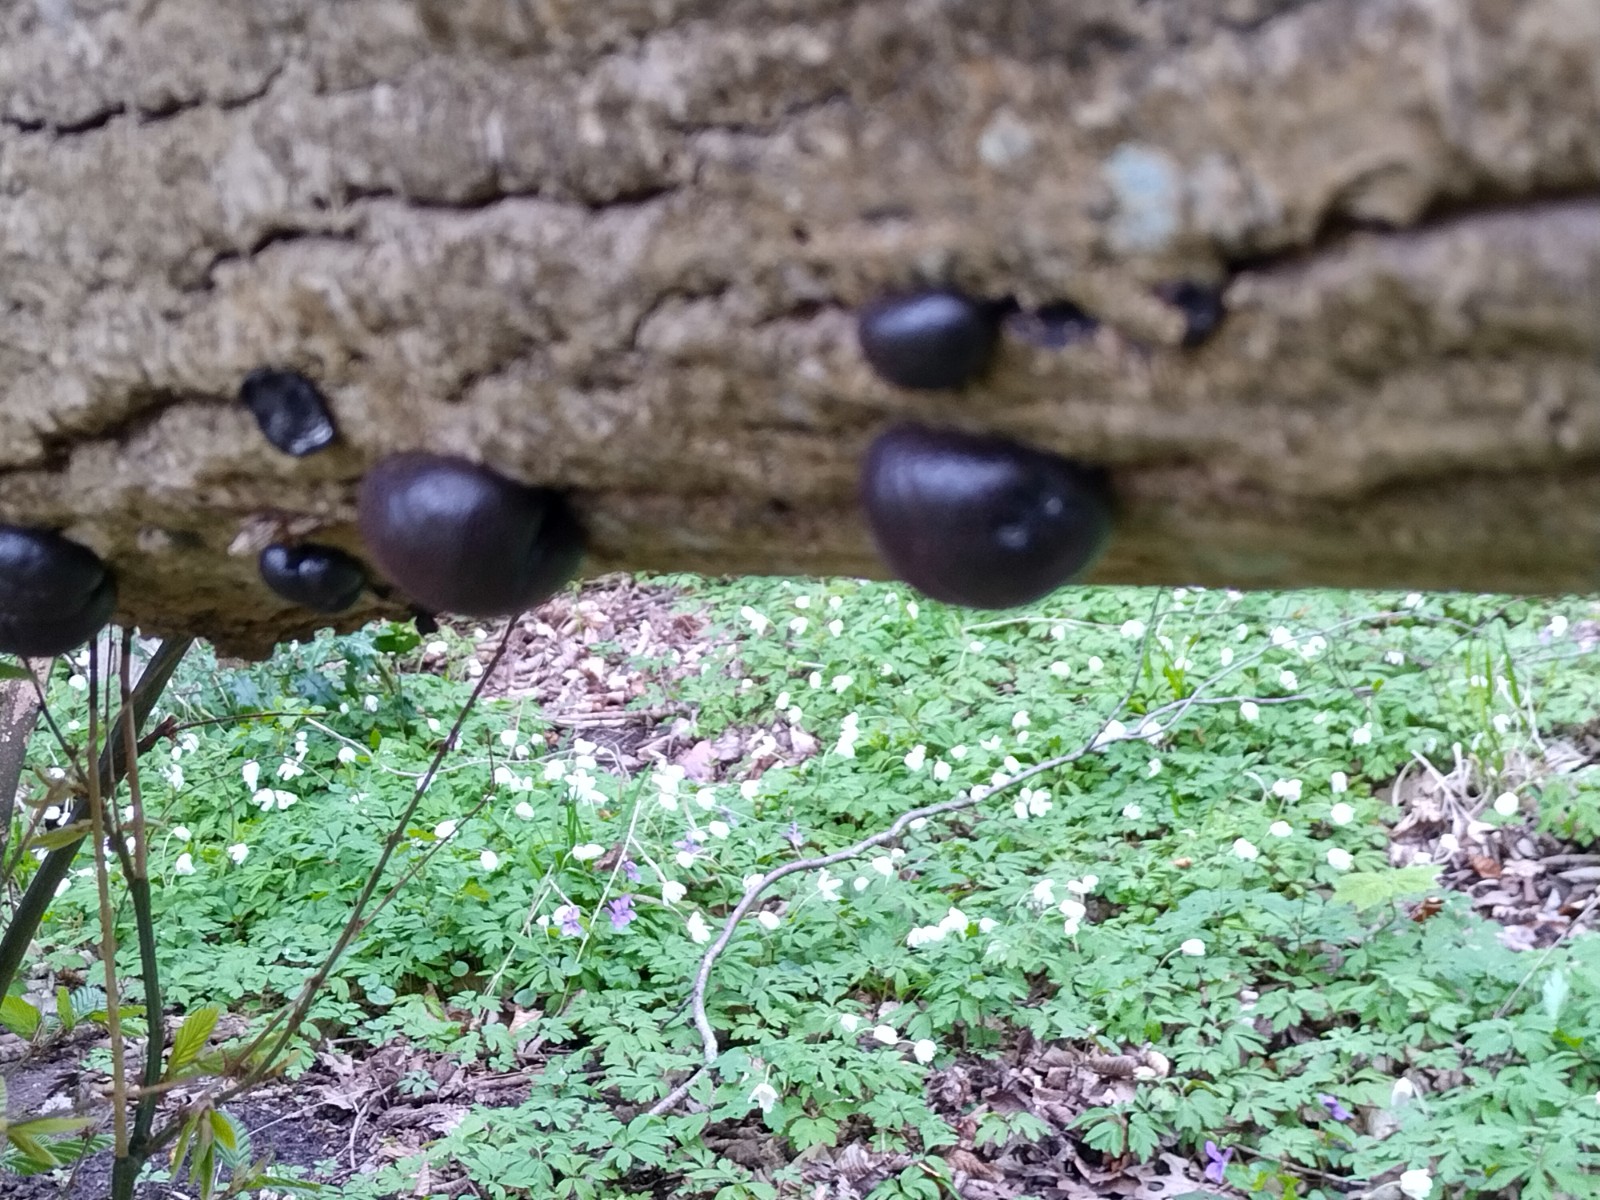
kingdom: Fungi
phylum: Ascomycota
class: Sordariomycetes
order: Xylariales
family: Hypoxylaceae
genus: Daldinia
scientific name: Daldinia concentrica
